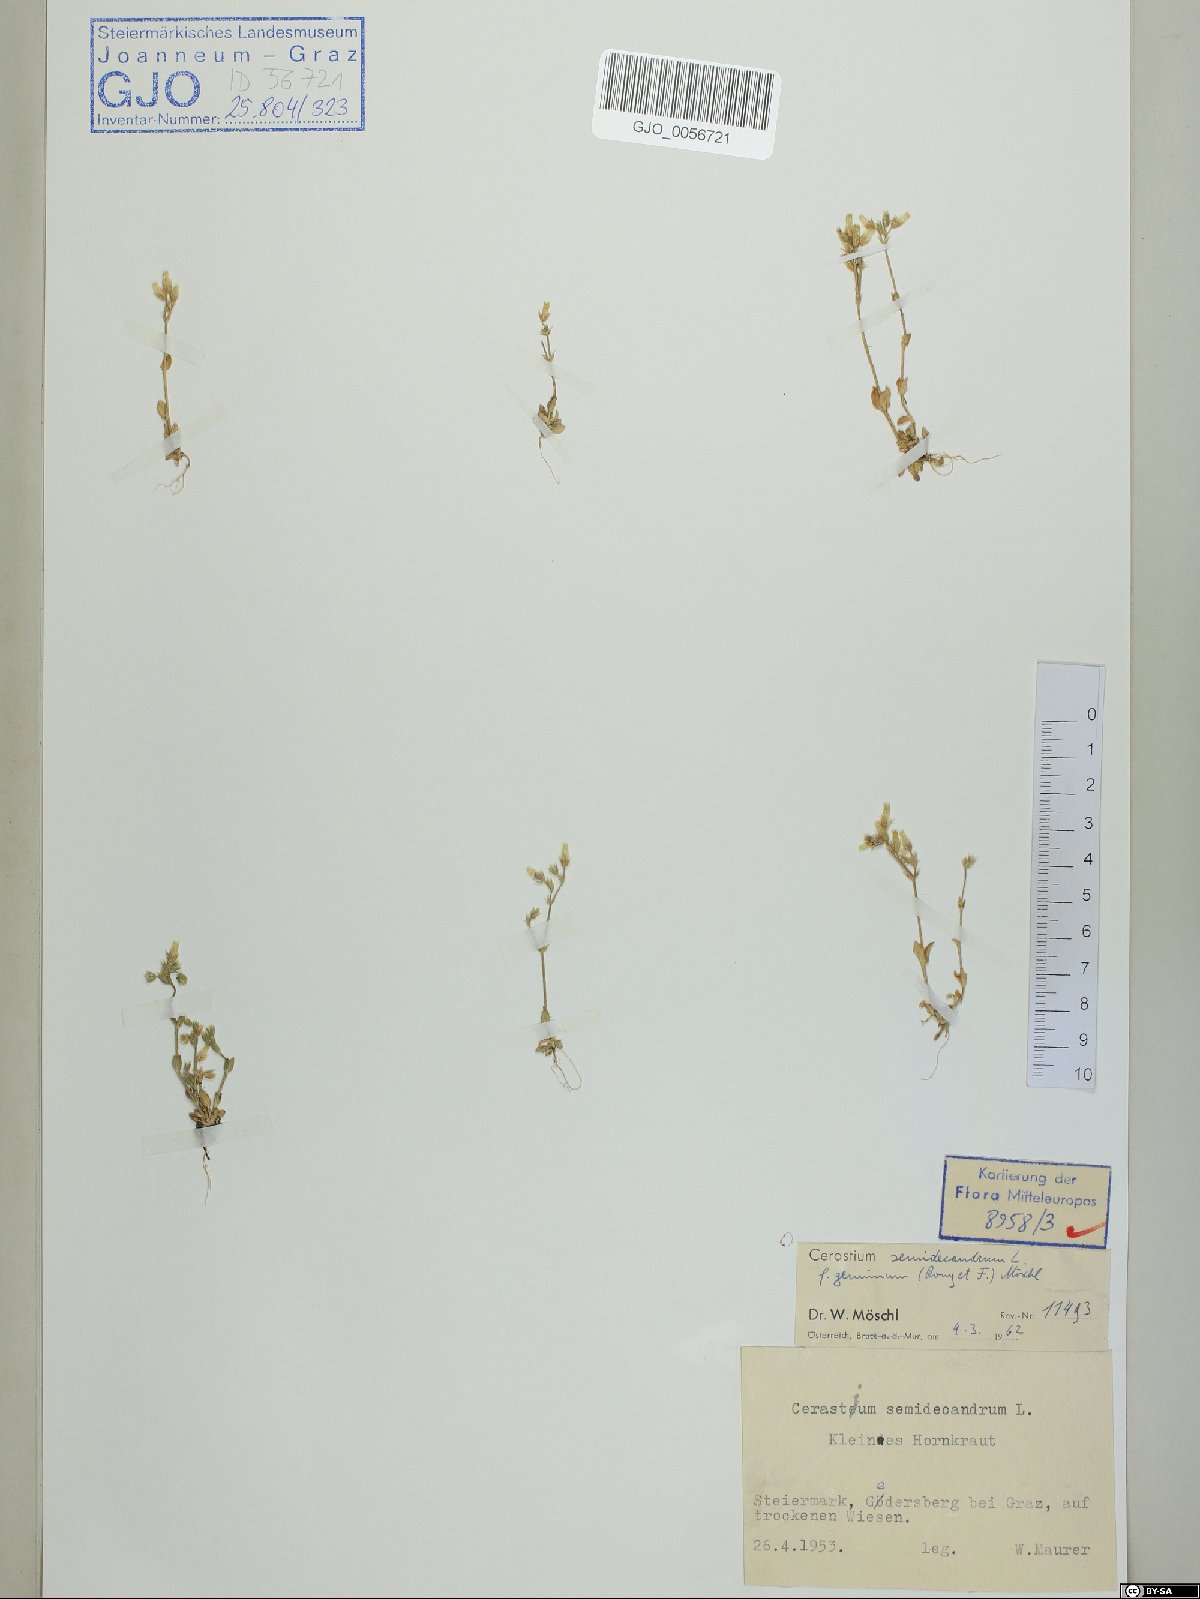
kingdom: Plantae
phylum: Tracheophyta
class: Magnoliopsida
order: Caryophyllales
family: Caryophyllaceae
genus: Cerastium
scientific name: Cerastium semidecandrum
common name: Little mouse-ear
